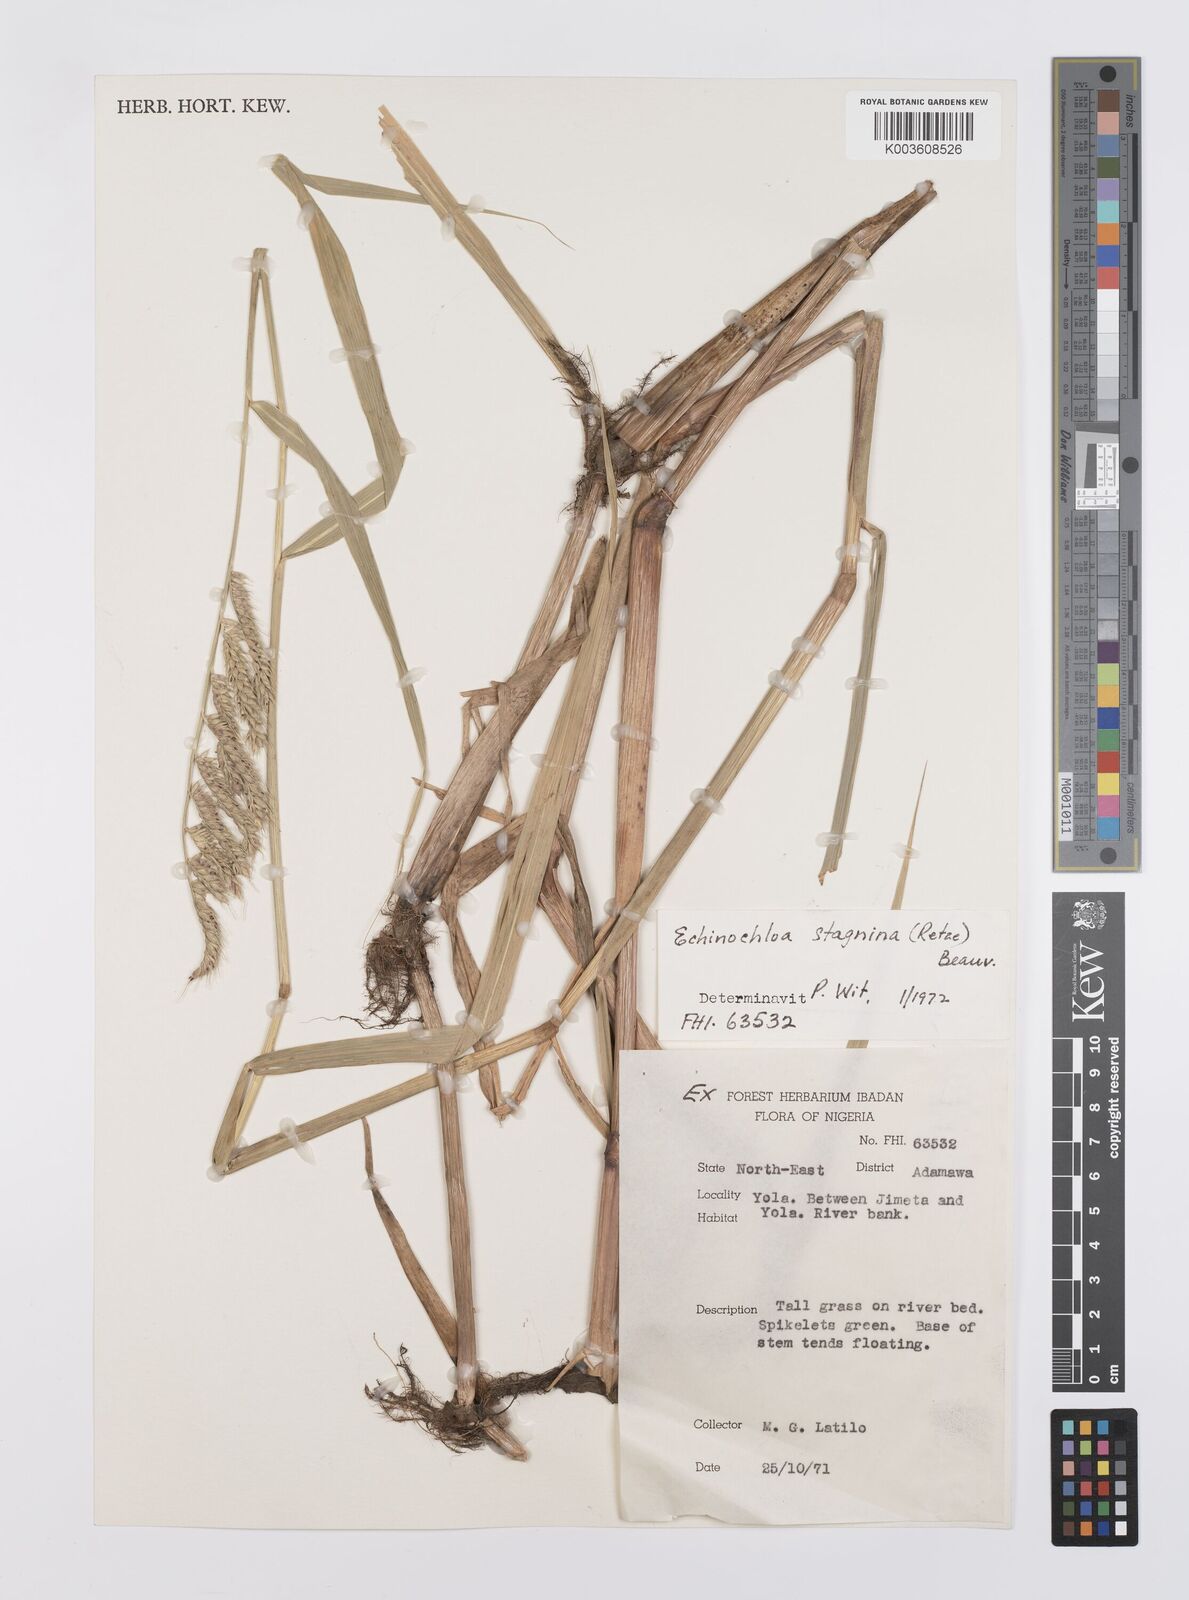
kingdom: Plantae
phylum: Tracheophyta
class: Liliopsida
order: Poales
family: Poaceae
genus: Echinochloa
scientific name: Echinochloa stagnina
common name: Burgu grass
